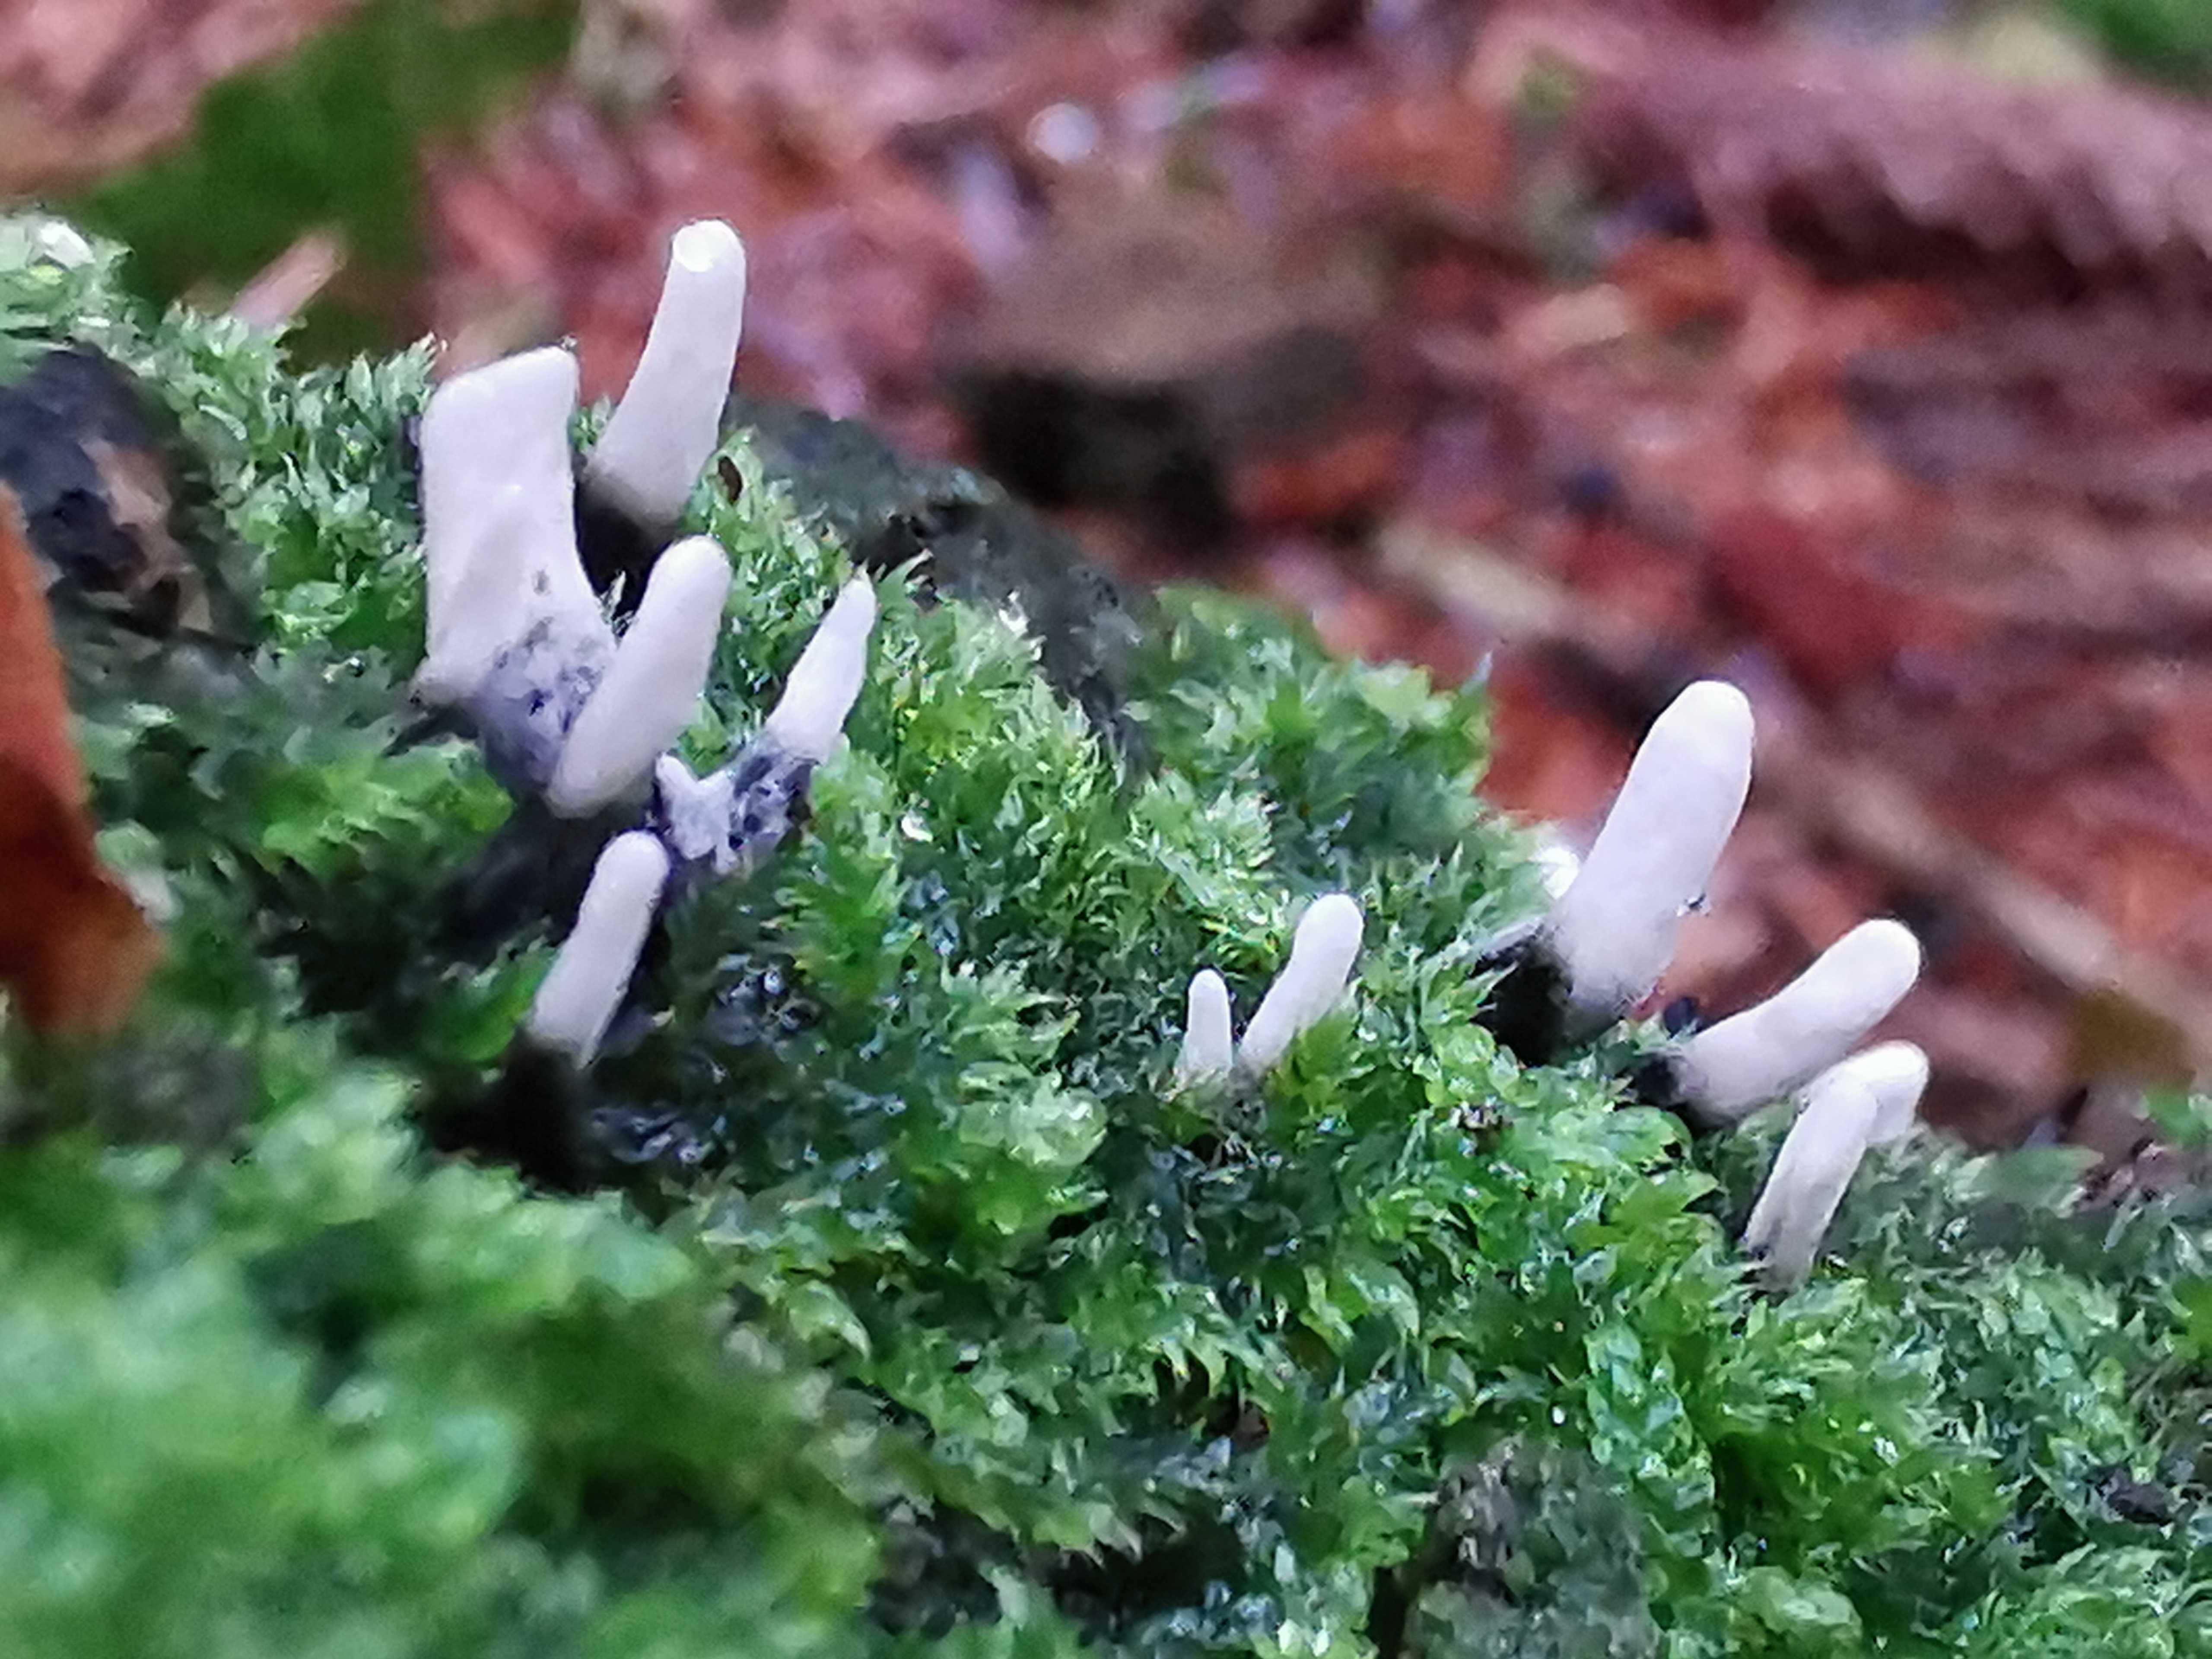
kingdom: Fungi
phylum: Ascomycota
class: Sordariomycetes
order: Xylariales
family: Xylariaceae
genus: Xylaria
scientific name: Xylaria hypoxylon
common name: grenet stødsvamp
